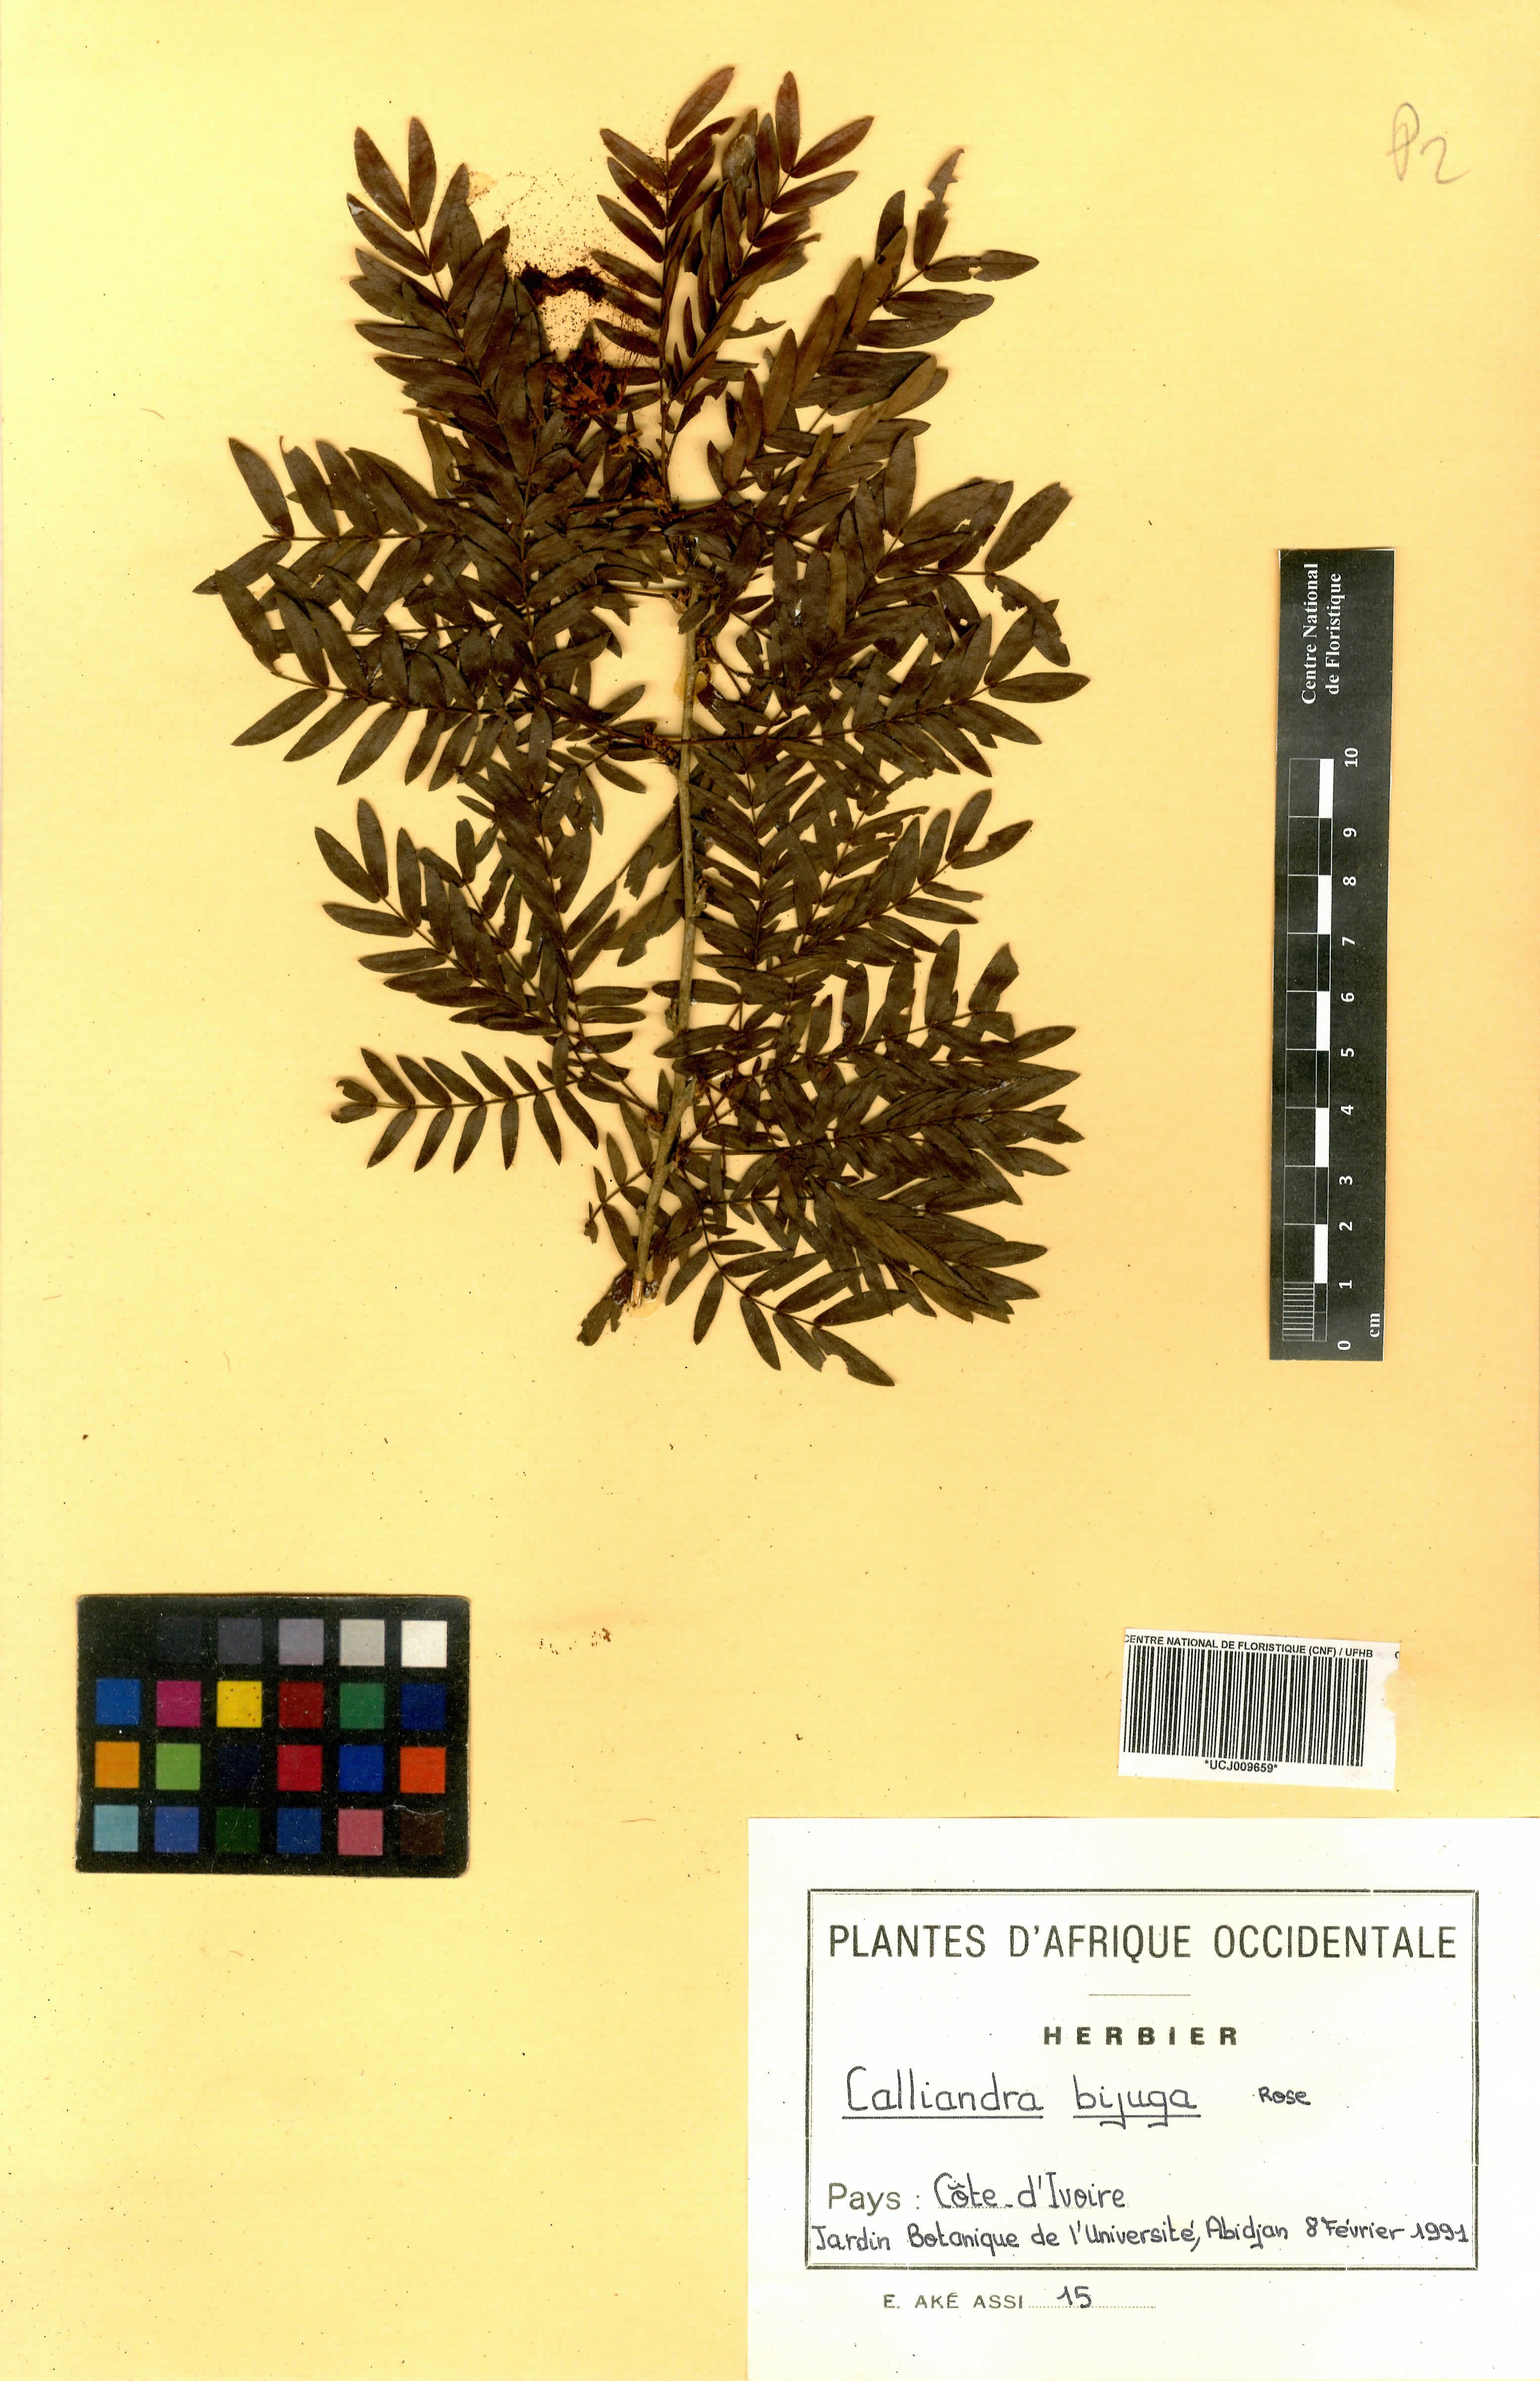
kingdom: Plantae
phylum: Tracheophyta
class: Magnoliopsida
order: Fabales
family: Fabaceae
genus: Calliandra
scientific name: Calliandra bijuga
